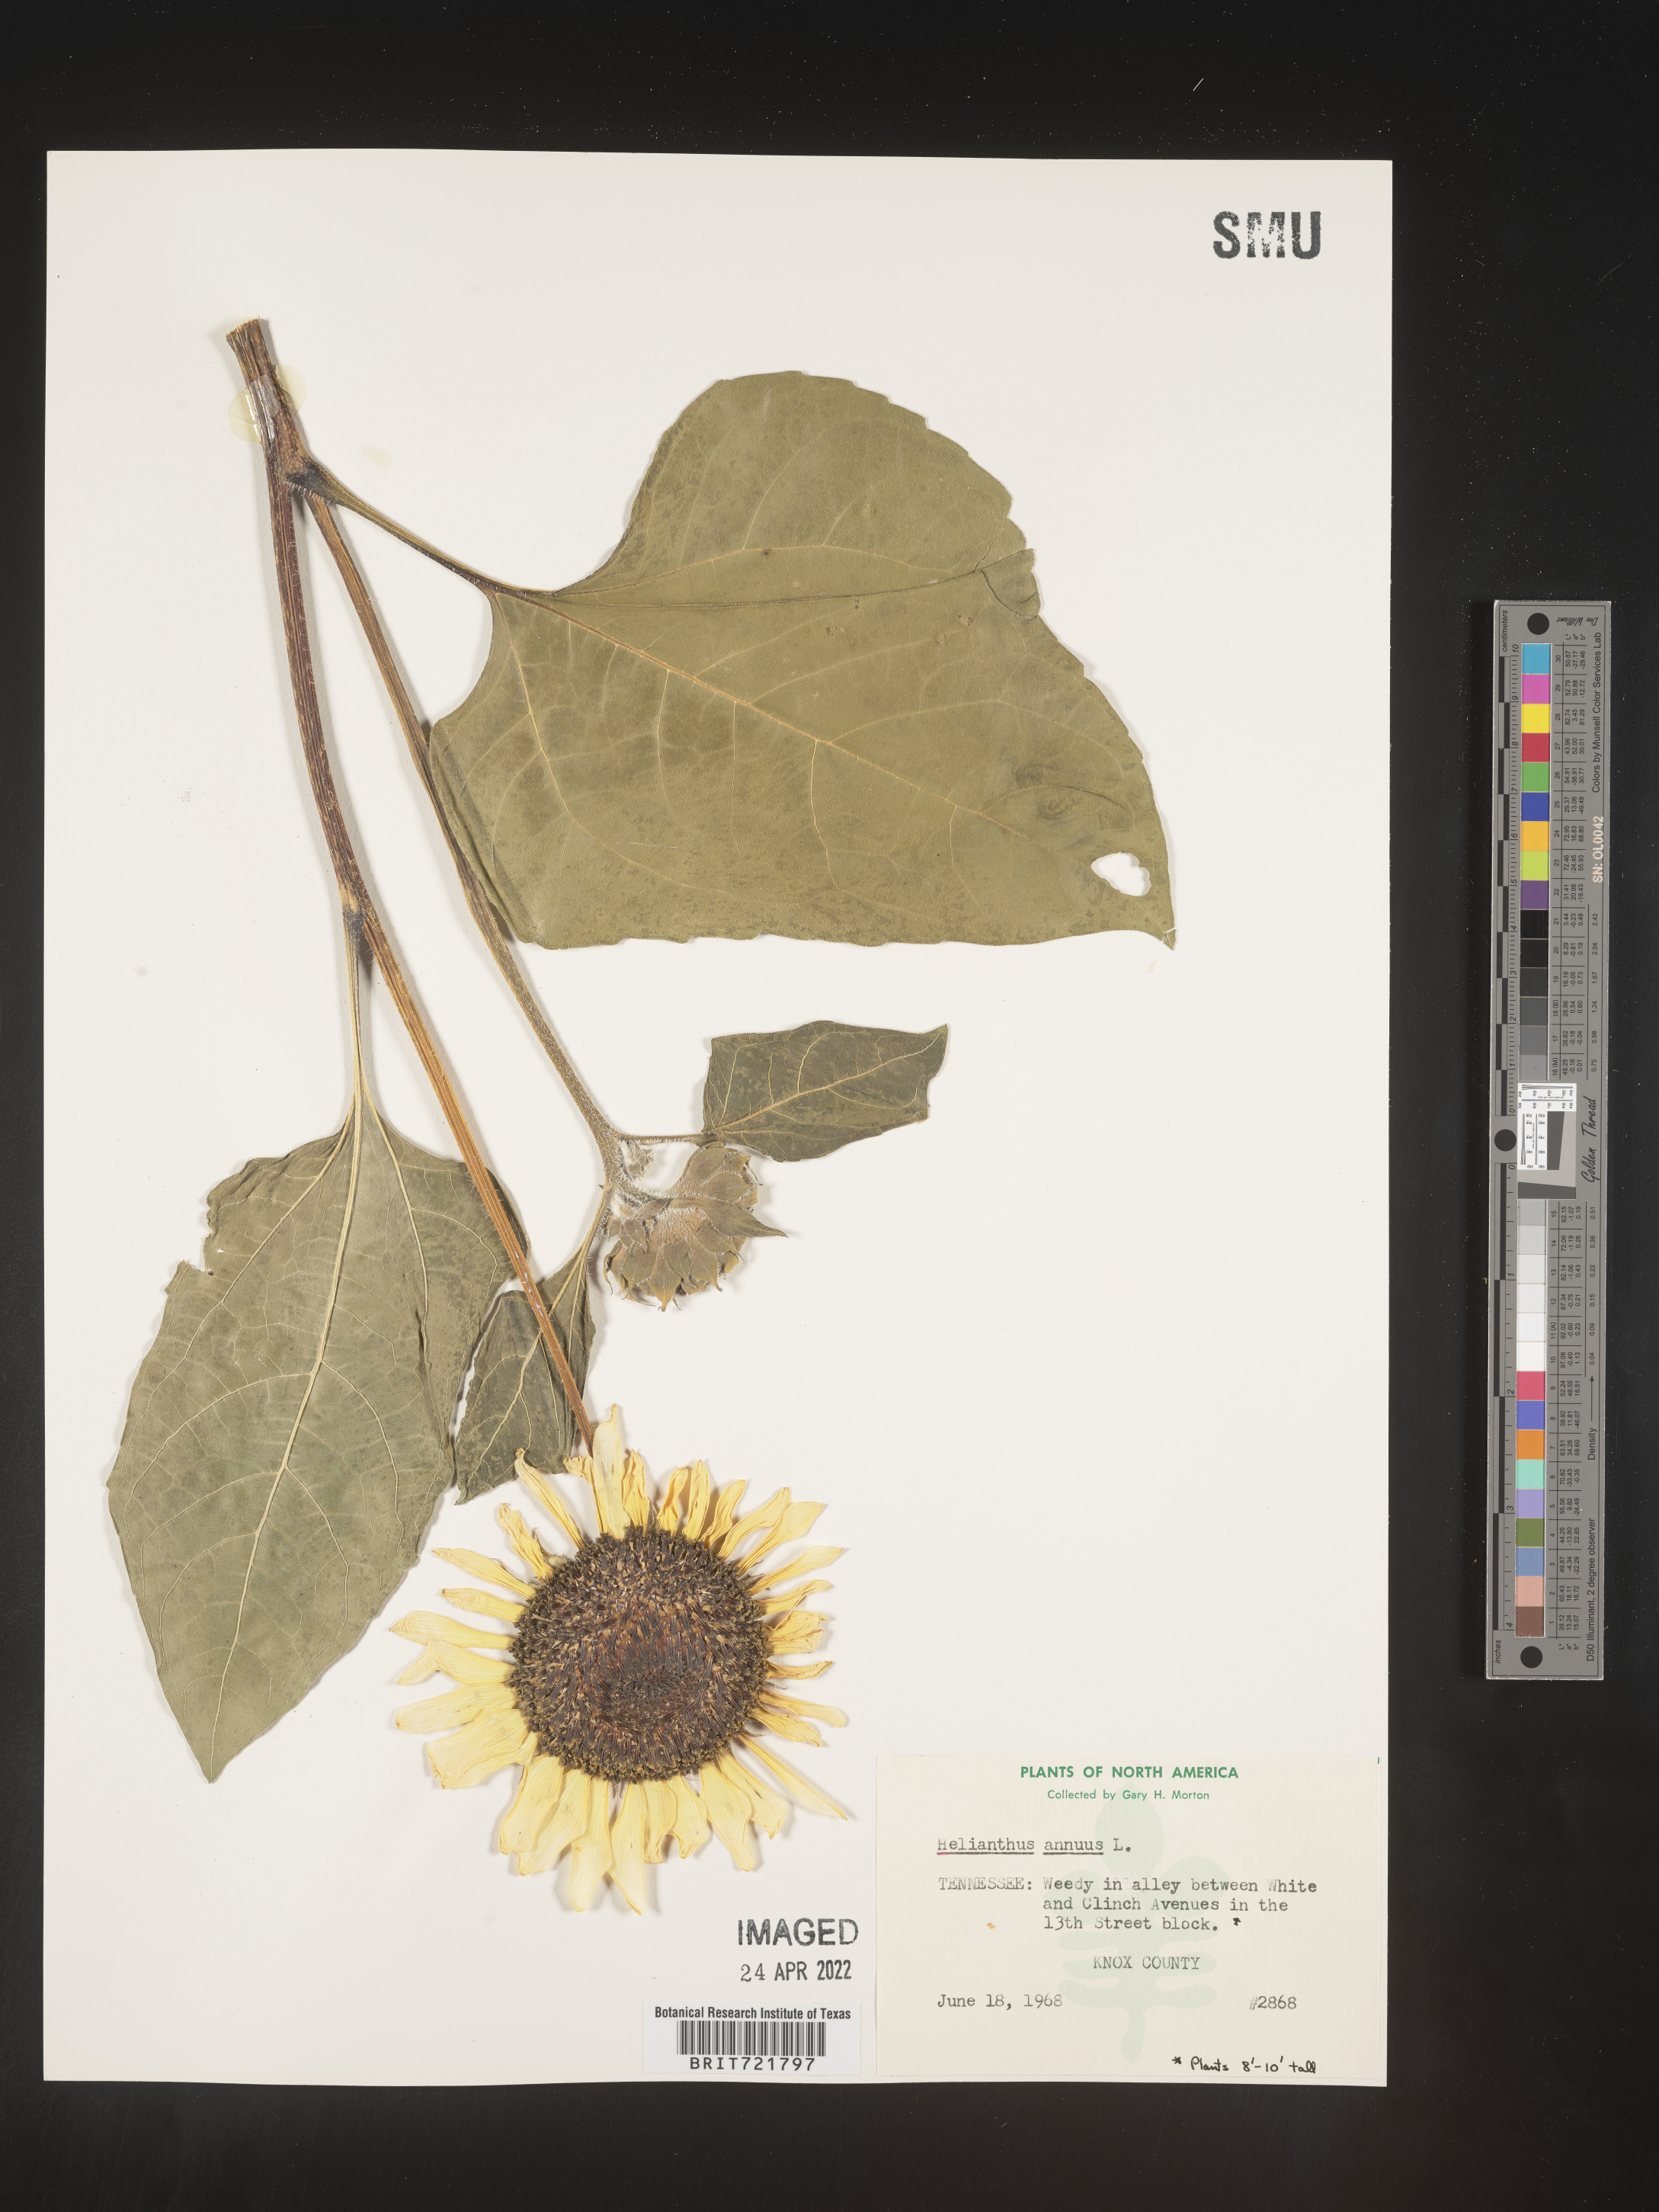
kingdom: Plantae
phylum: Tracheophyta
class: Magnoliopsida
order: Asterales
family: Asteraceae
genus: Helianthus
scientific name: Helianthus annuus
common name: Sunflower
